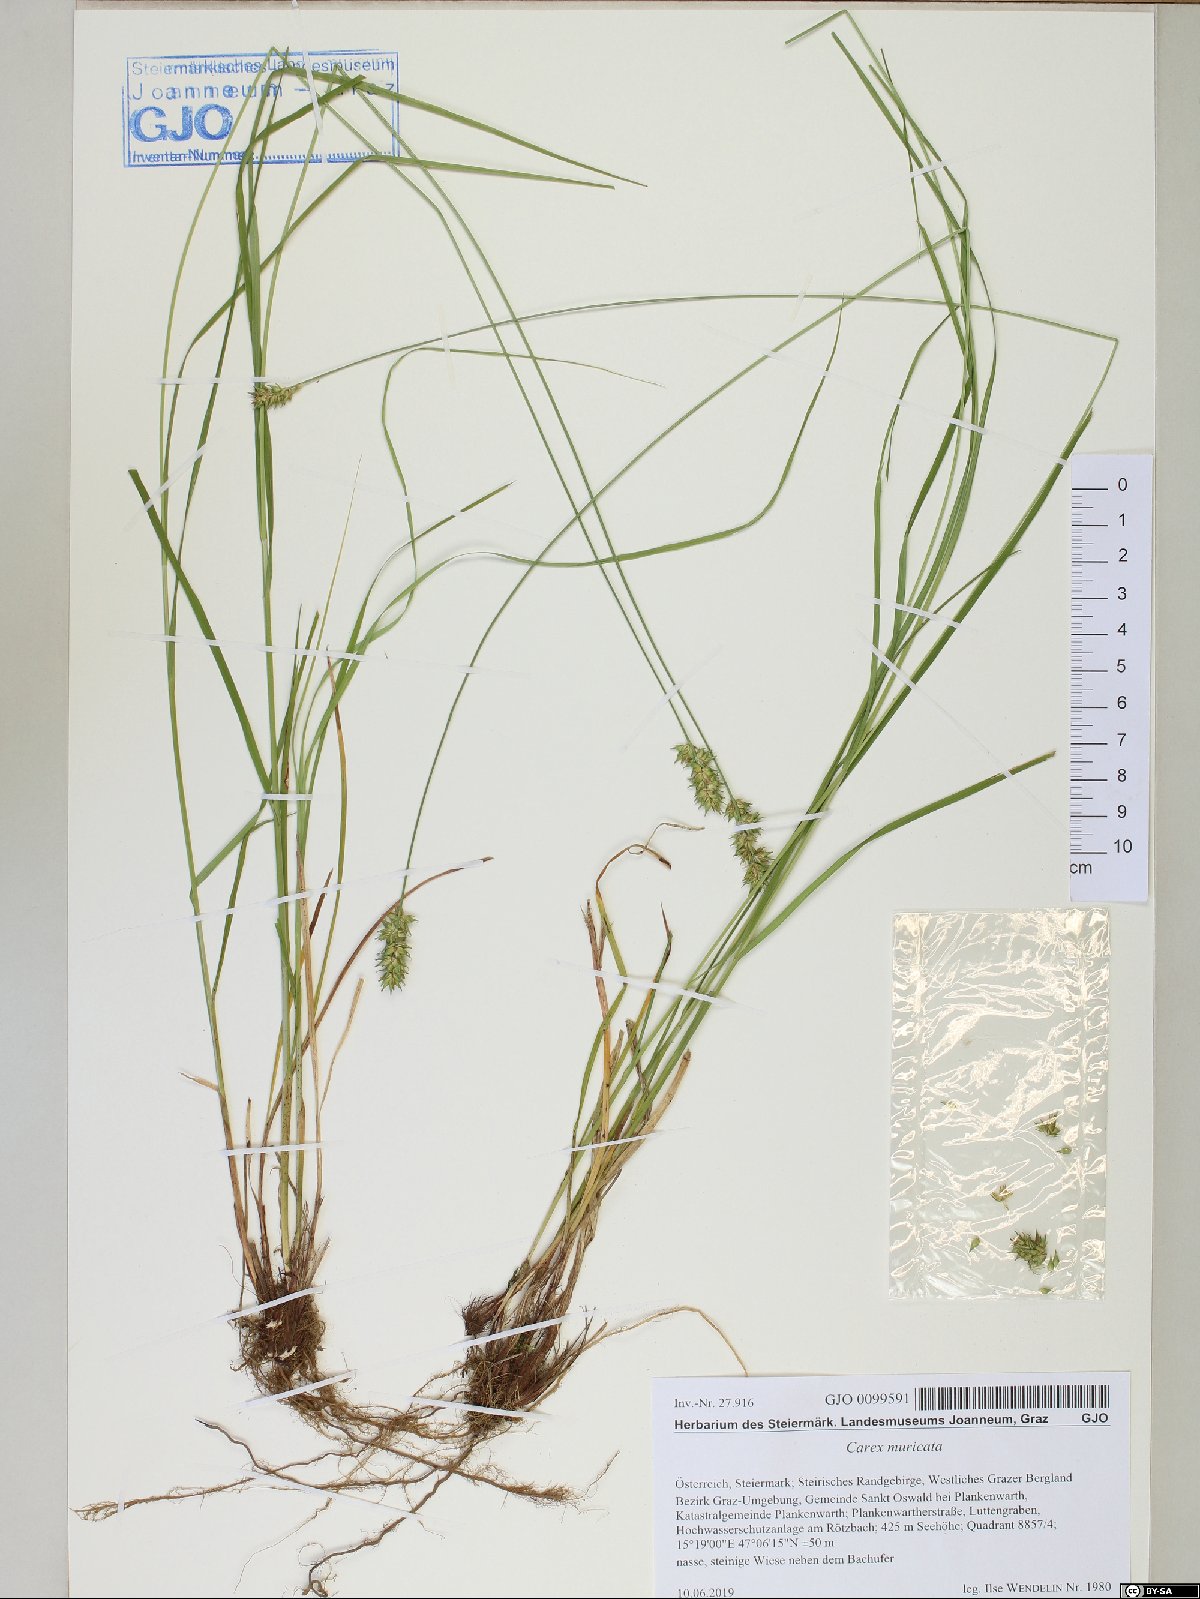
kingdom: Plantae
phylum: Tracheophyta
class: Liliopsida
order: Poales
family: Cyperaceae
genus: Carex
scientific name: Carex muricata
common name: Rough sedge
